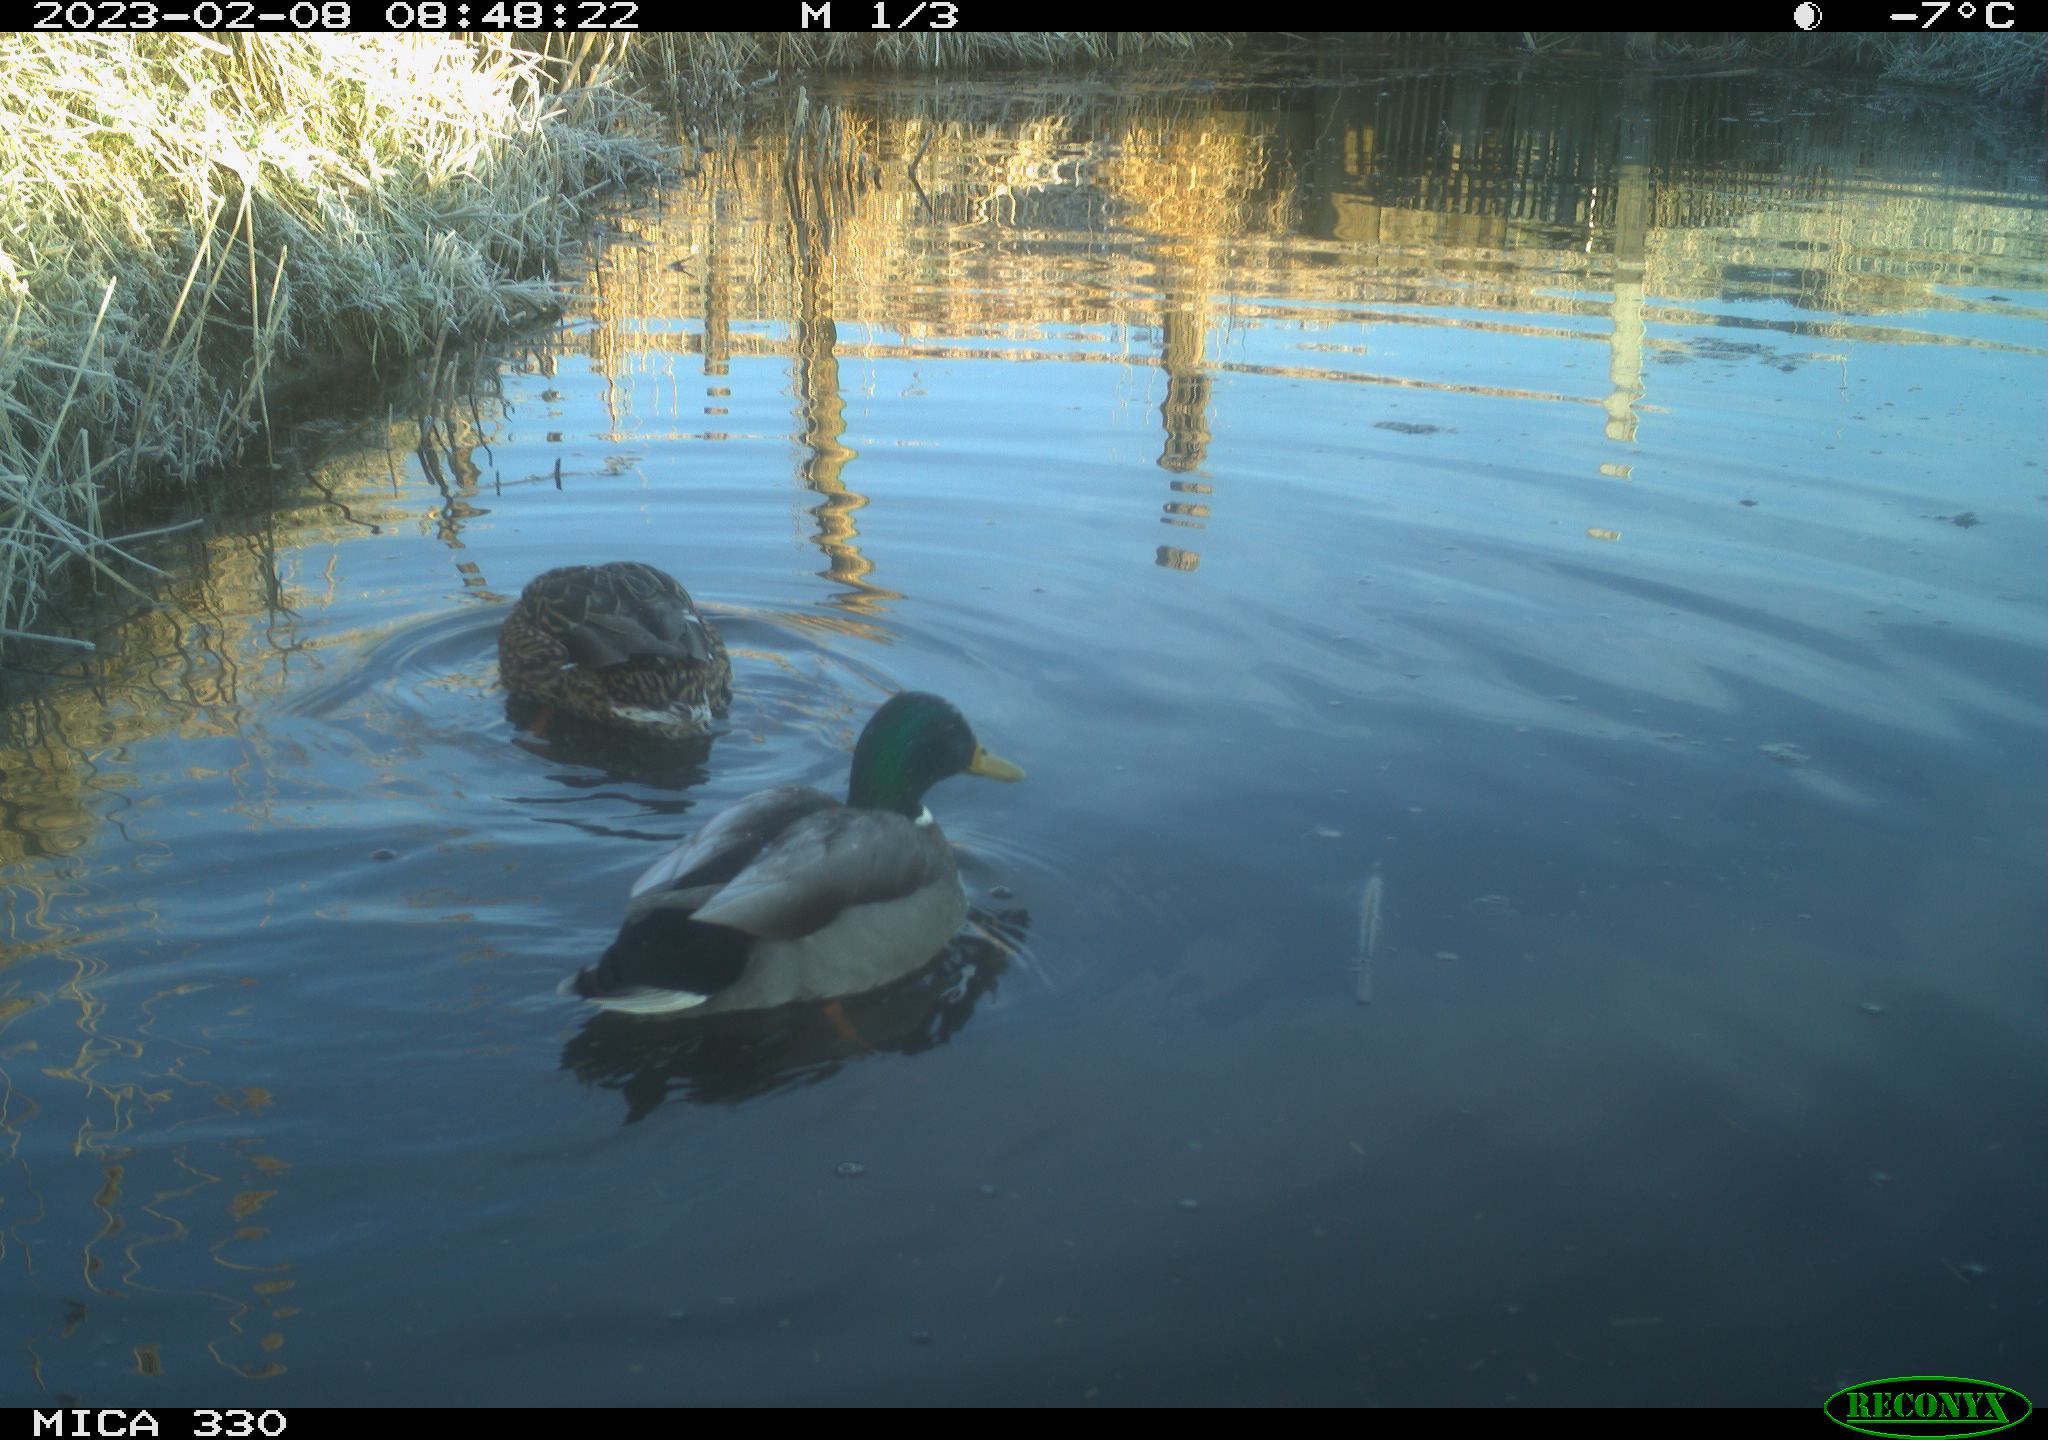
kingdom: Animalia
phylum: Chordata
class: Aves
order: Anseriformes
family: Anatidae
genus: Anas
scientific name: Anas
